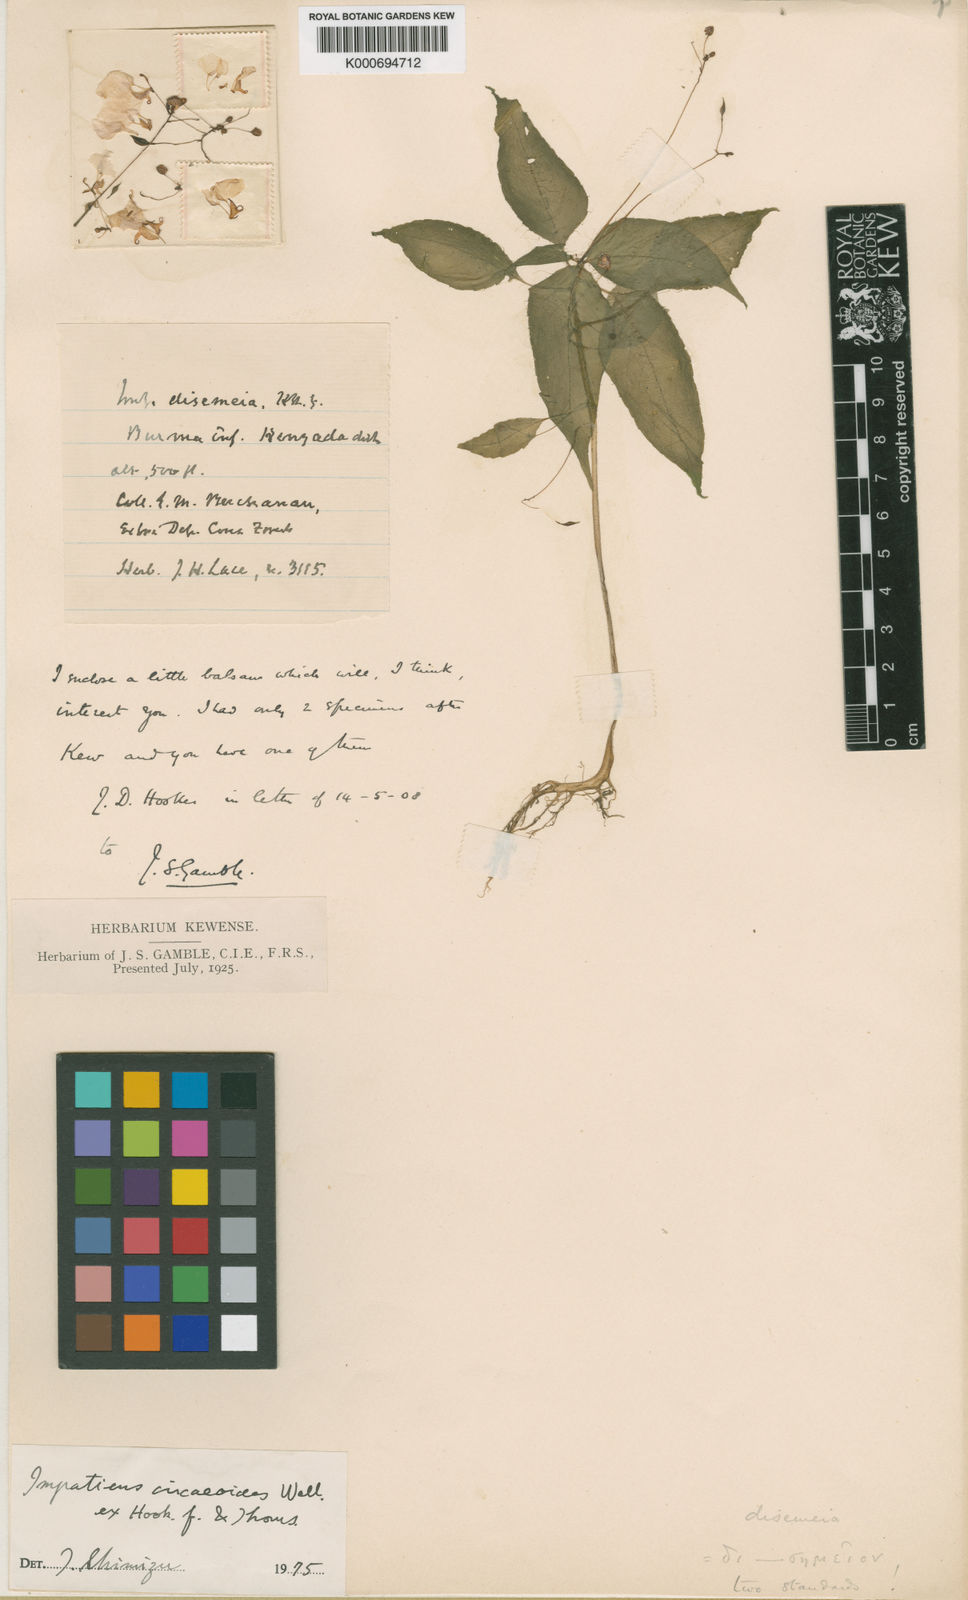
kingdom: Plantae
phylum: Tracheophyta
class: Magnoliopsida
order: Ericales
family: Balsaminaceae
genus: Impatiens
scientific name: Impatiens
